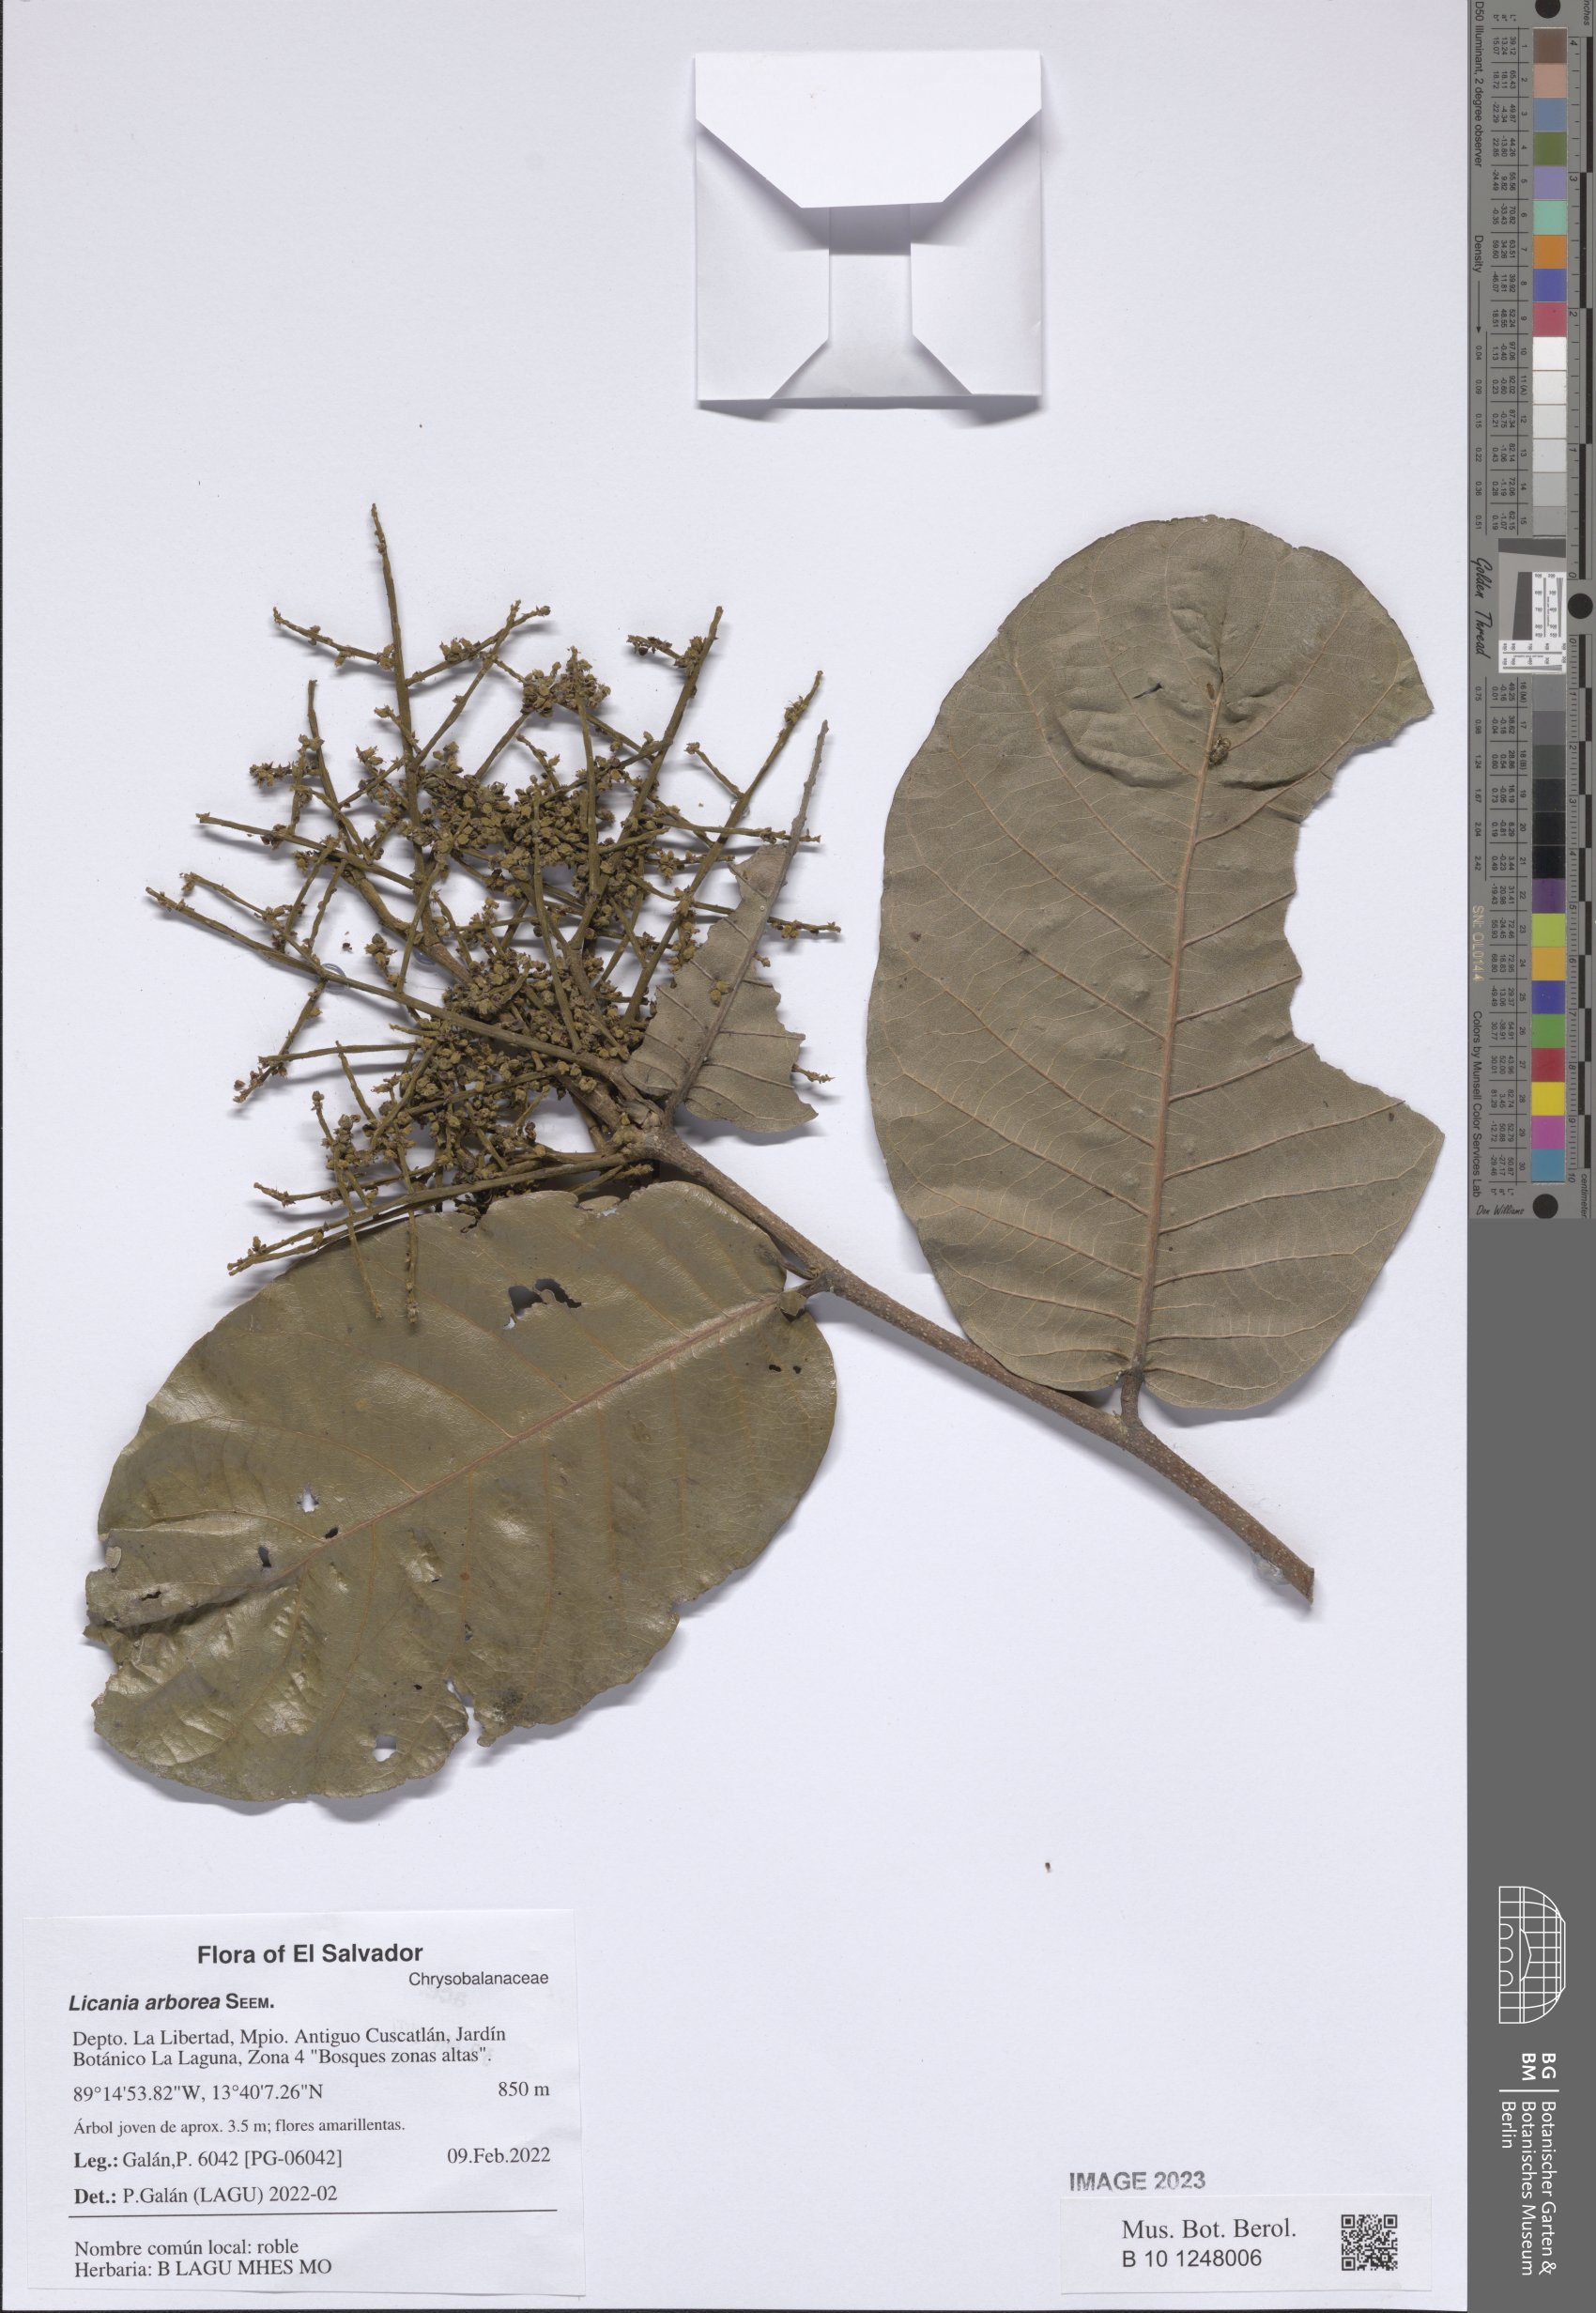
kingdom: Plantae
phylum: Tracheophyta
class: Magnoliopsida
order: Malpighiales
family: Chrysobalanaceae
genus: Microdesmia
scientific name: Microdesmia arborea
